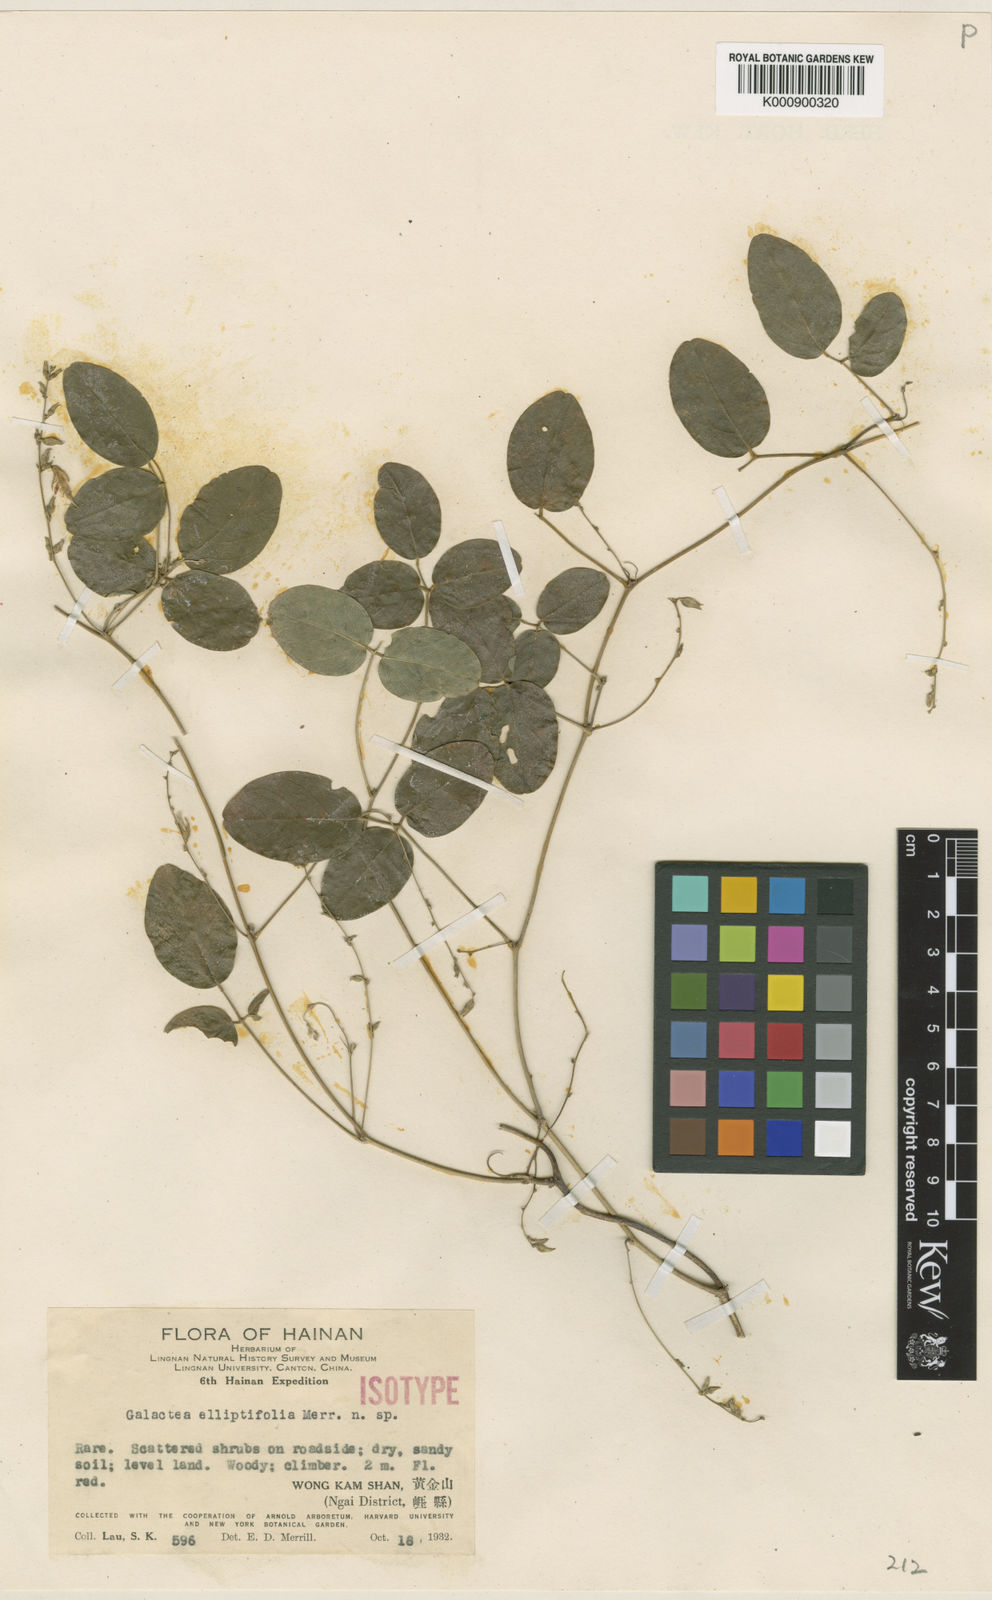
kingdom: Plantae
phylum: Tracheophyta
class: Magnoliopsida
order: Fabales
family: Fabaceae
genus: Galactia
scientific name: Galactia elliptifoliola
